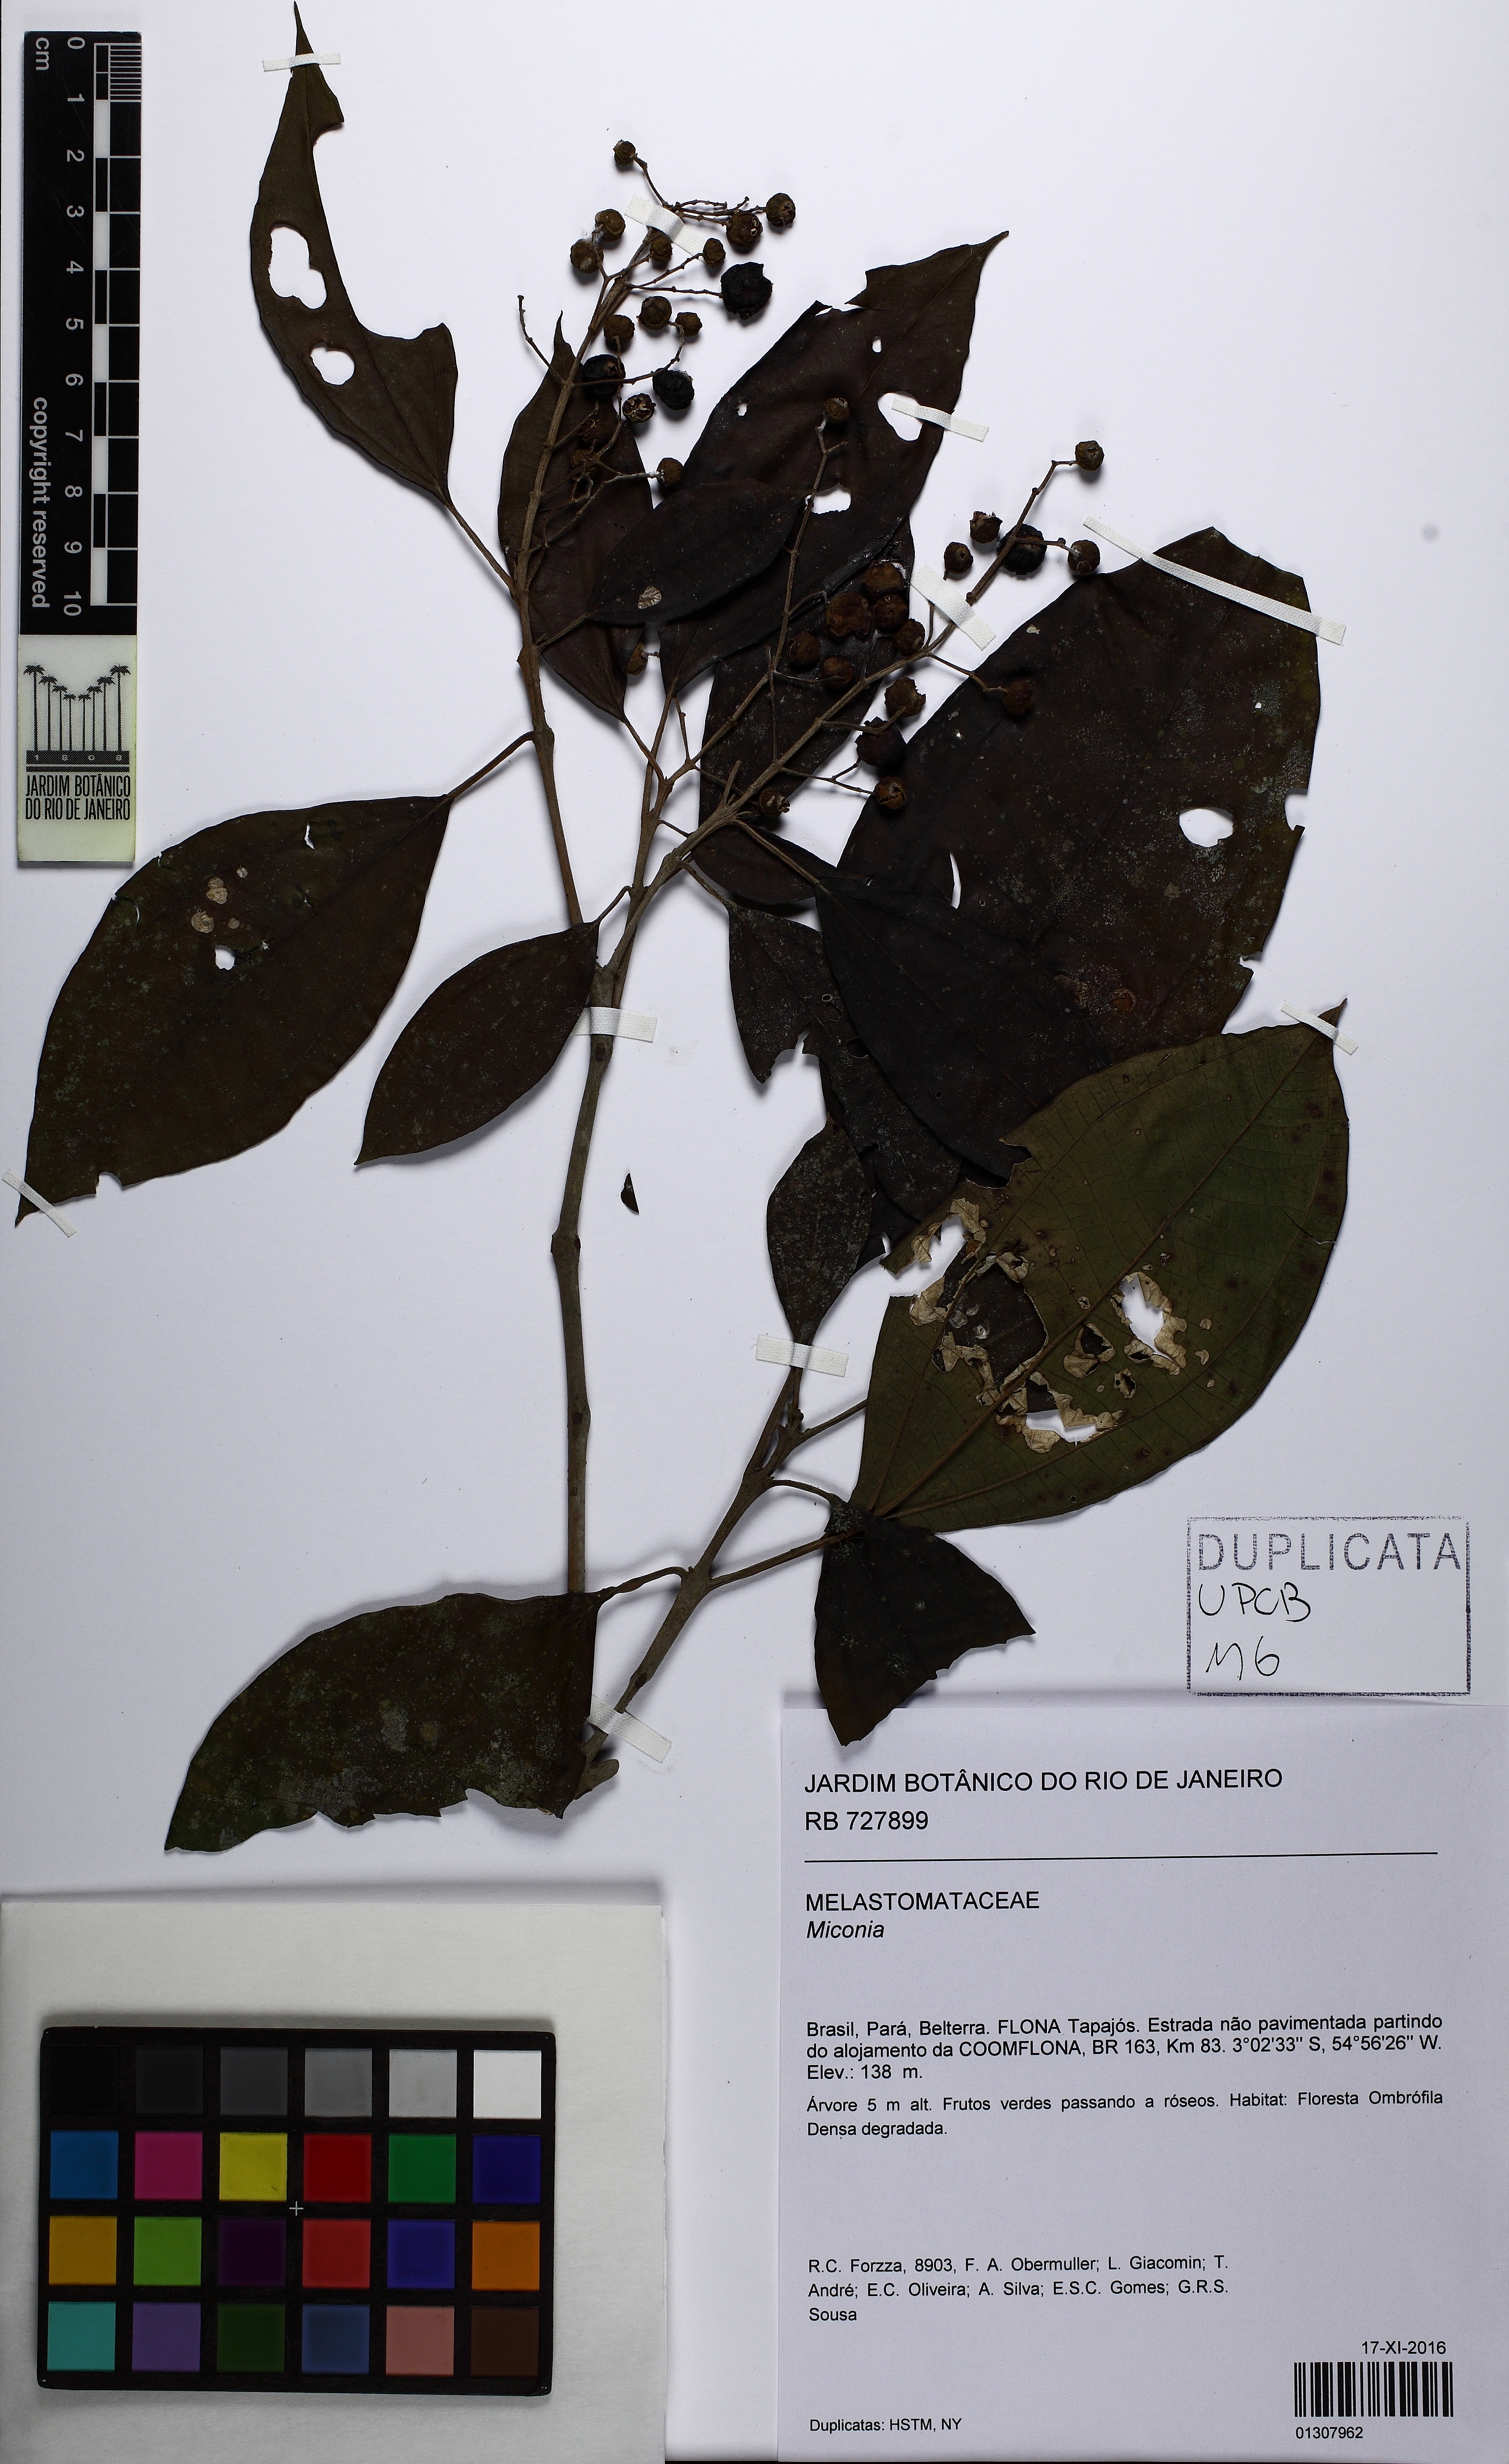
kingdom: Plantae
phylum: Tracheophyta
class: Magnoliopsida
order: Myrtales
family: Melastomataceae
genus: Miconia
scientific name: Miconia ruficalyx
